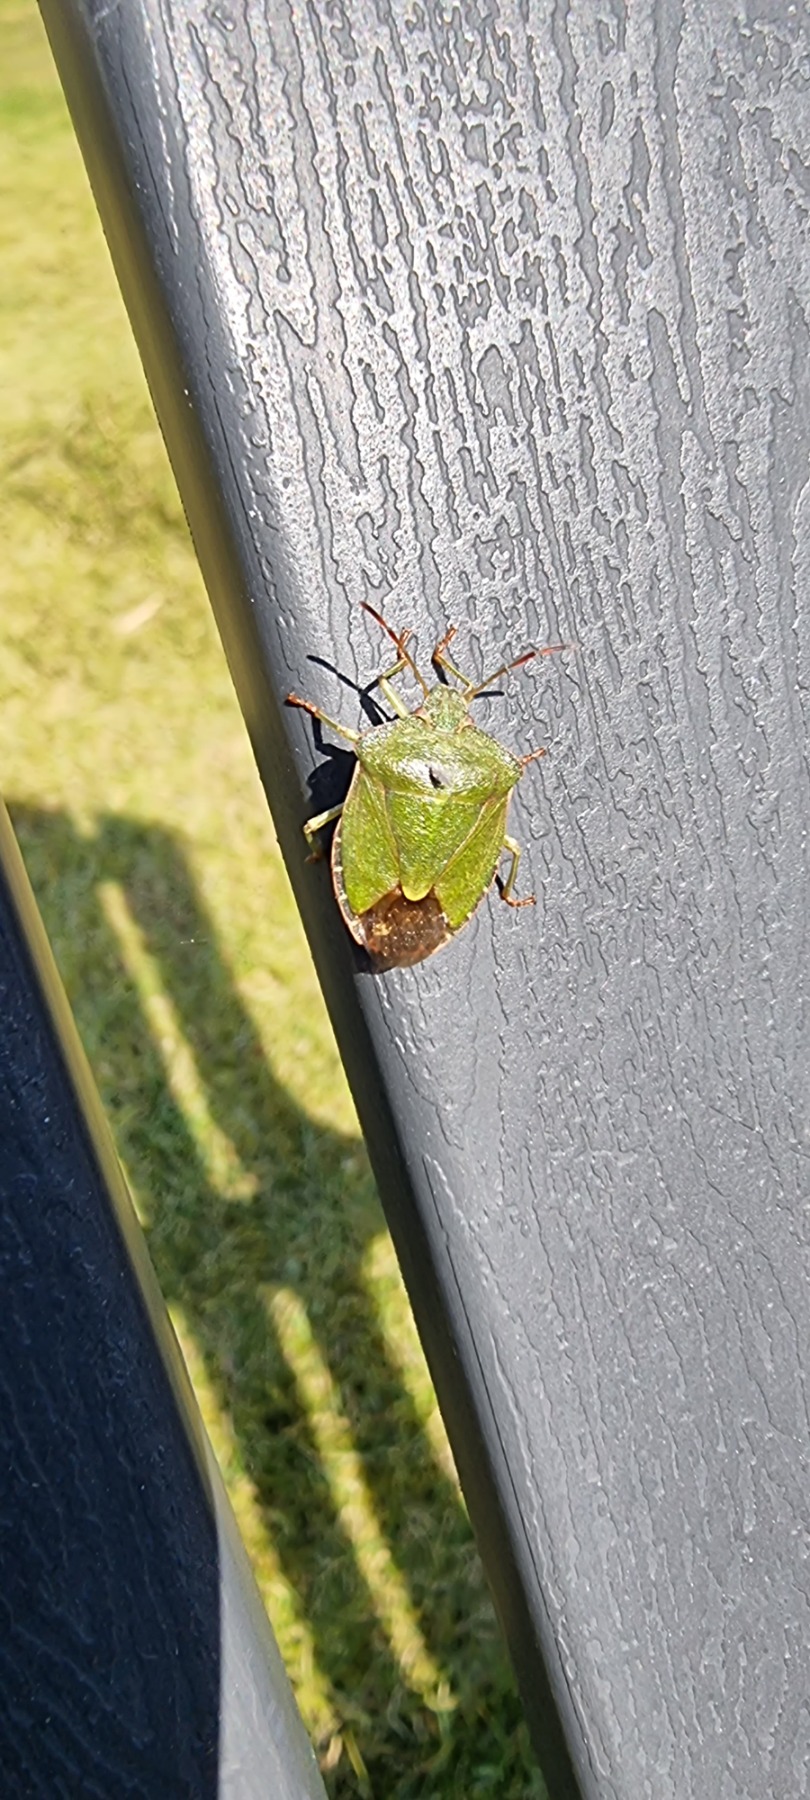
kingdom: Animalia
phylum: Arthropoda
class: Insecta
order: Hemiptera
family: Pentatomidae
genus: Palomena
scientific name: Palomena prasina
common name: Grøn bredtæge
